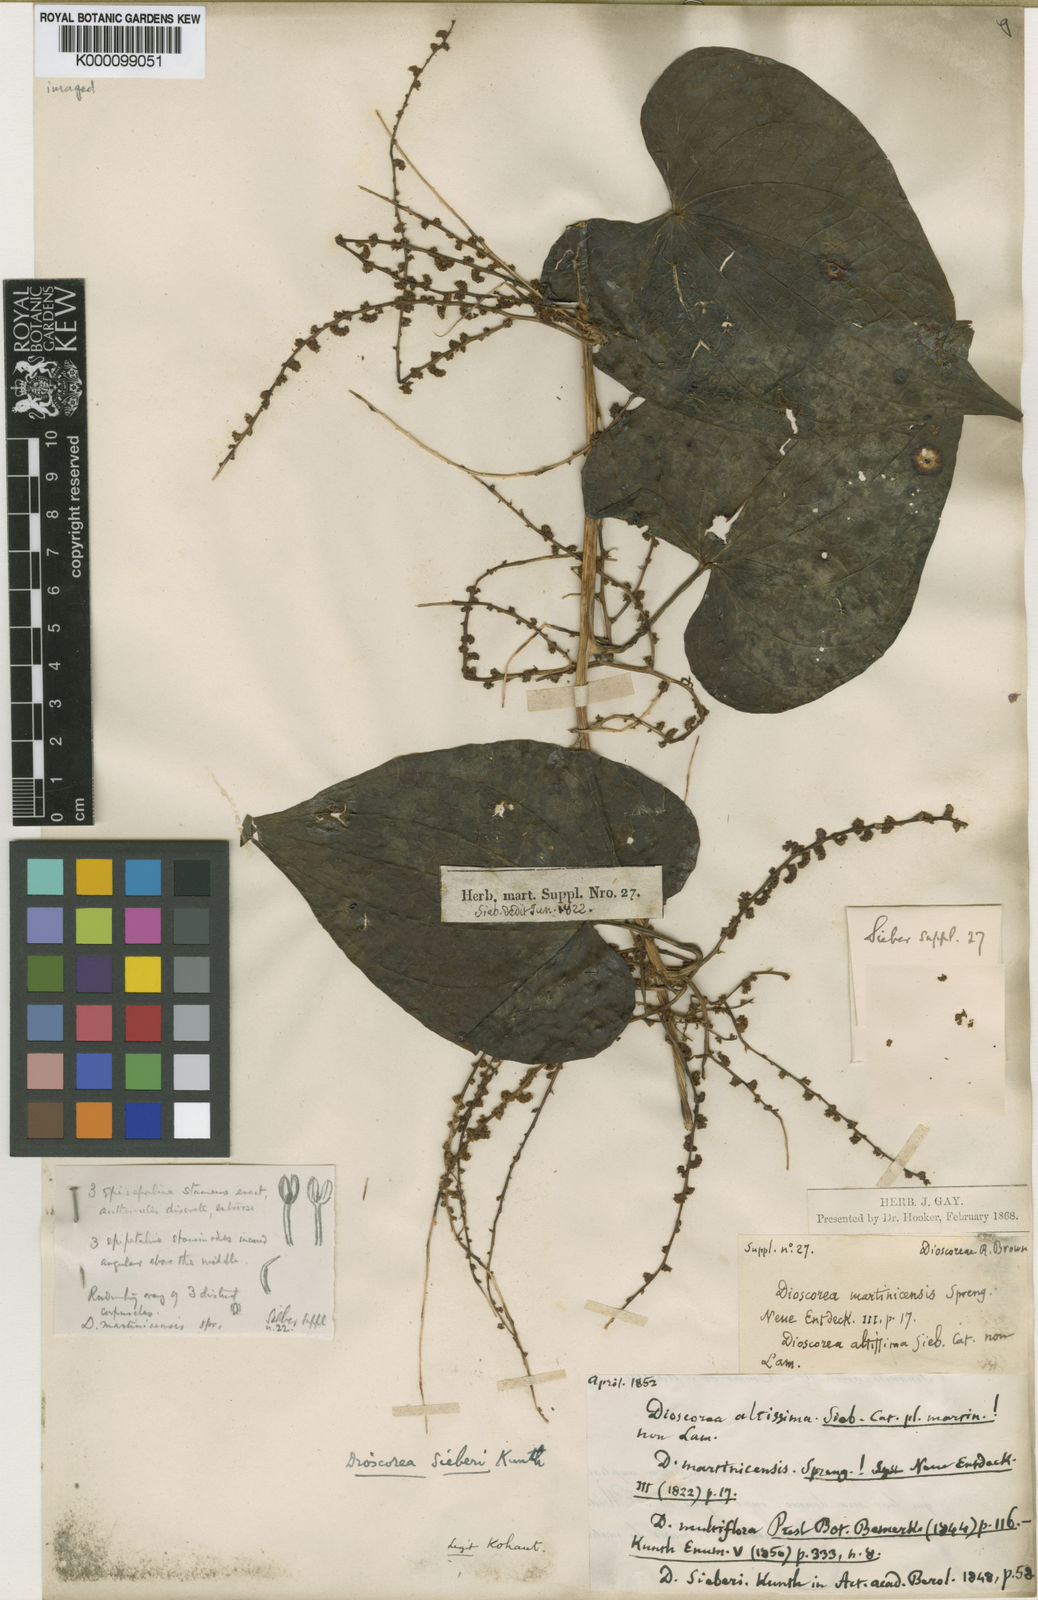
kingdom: Plantae
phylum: Tracheophyta
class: Liliopsida
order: Dioscoreales
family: Dioscoreaceae
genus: Dioscorea
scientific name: Dioscorea polygonoides
